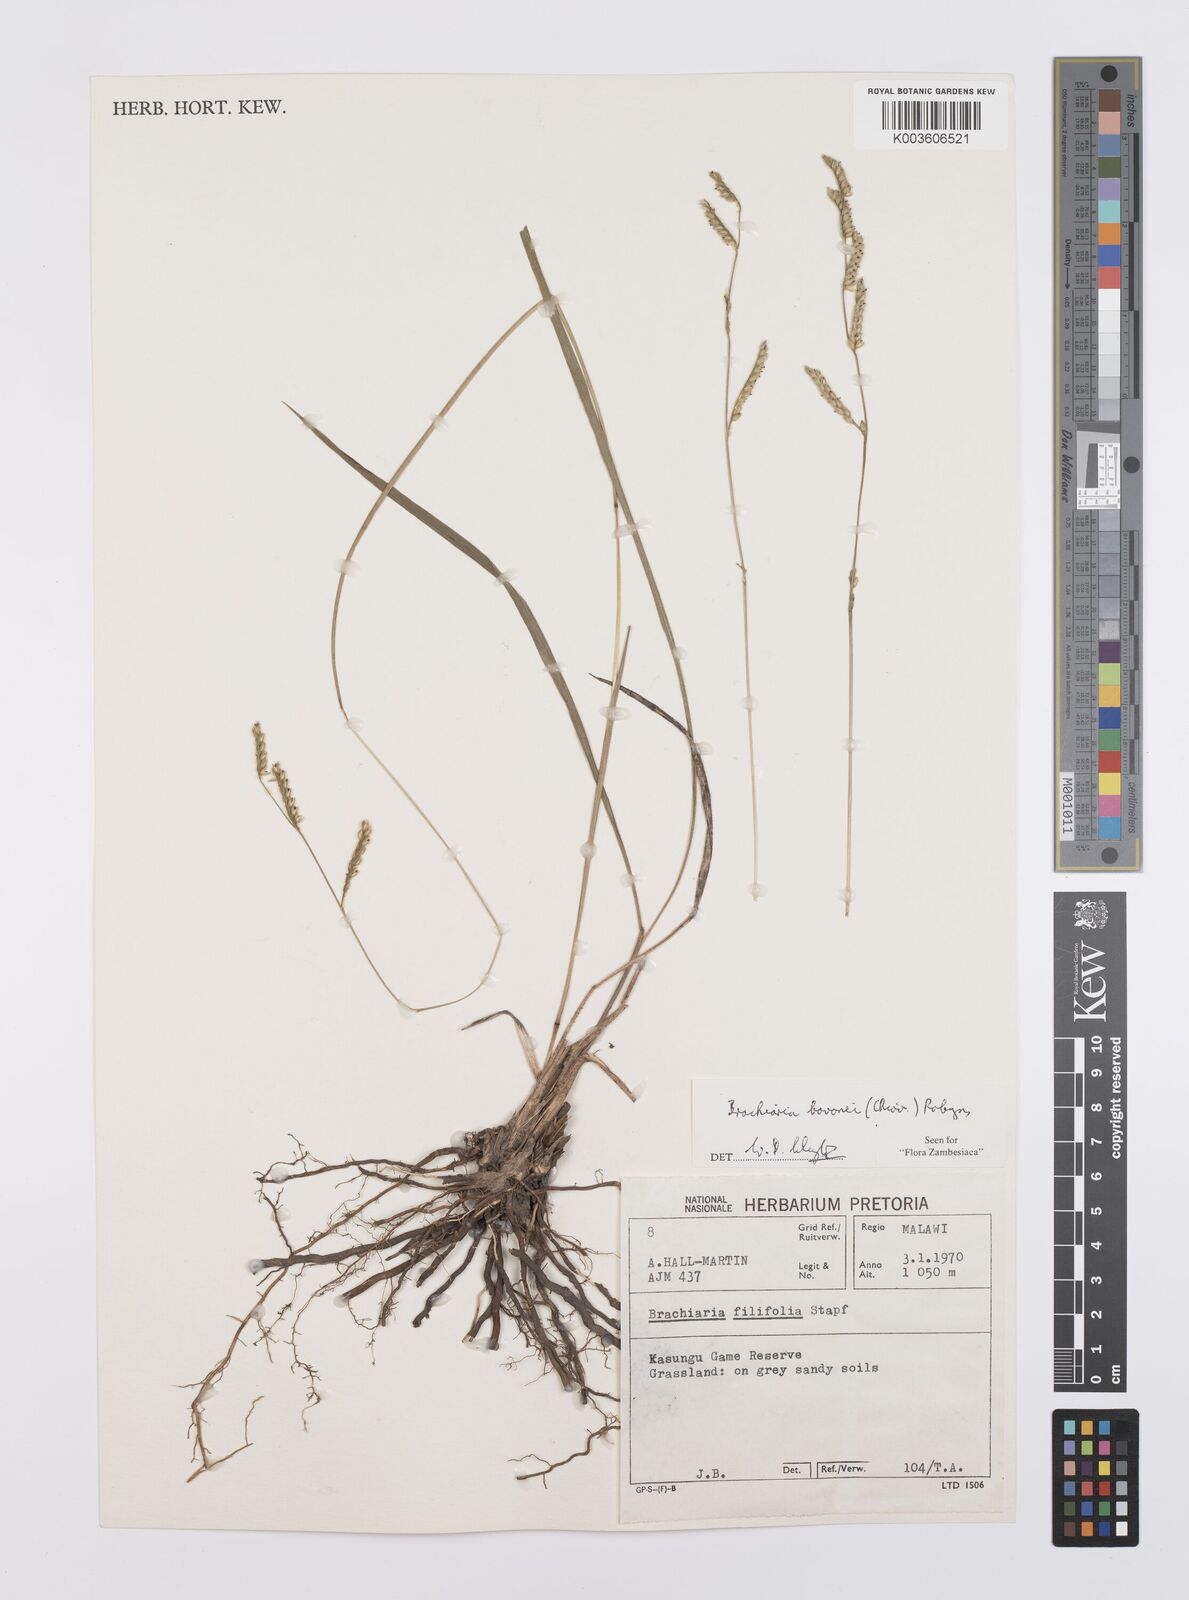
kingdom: Plantae
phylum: Tracheophyta
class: Liliopsida
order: Poales
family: Poaceae
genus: Urochloa
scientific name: Urochloa bovonei
